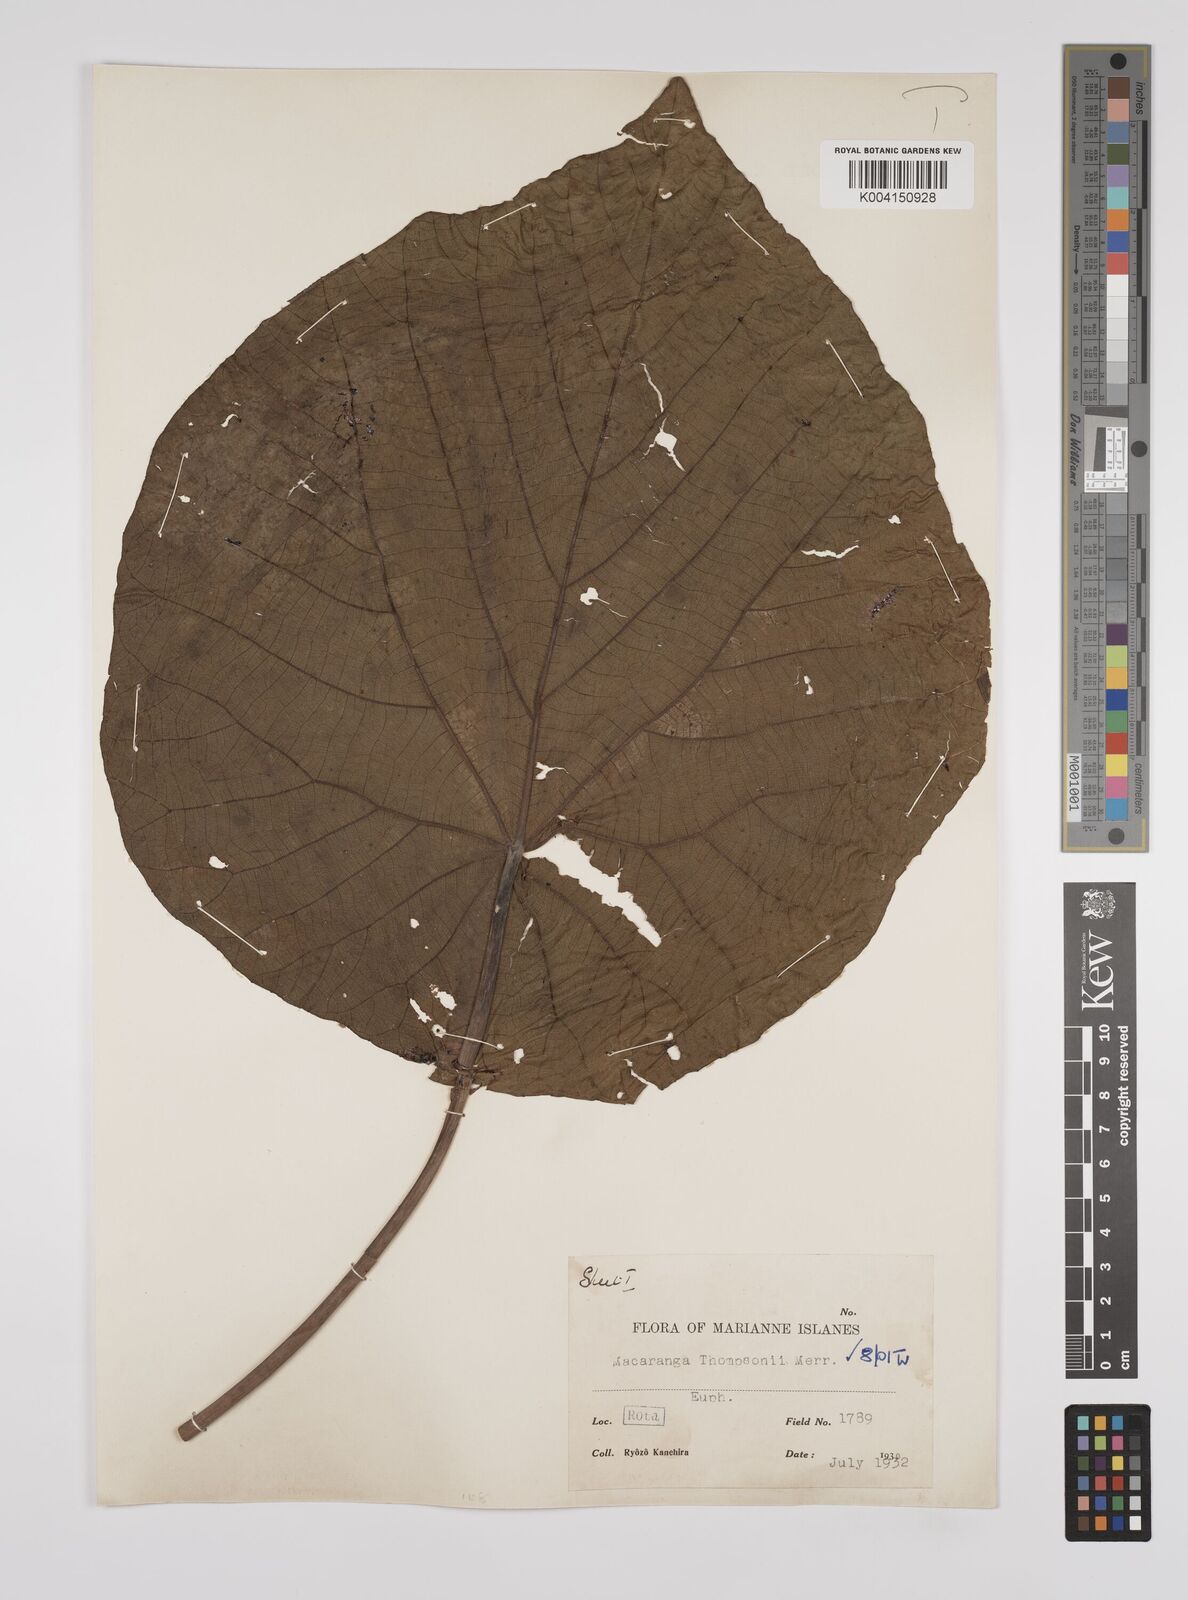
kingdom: Plantae
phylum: Tracheophyta
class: Magnoliopsida
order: Malpighiales
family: Euphorbiaceae
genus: Macaranga
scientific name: Macaranga thompsonii
